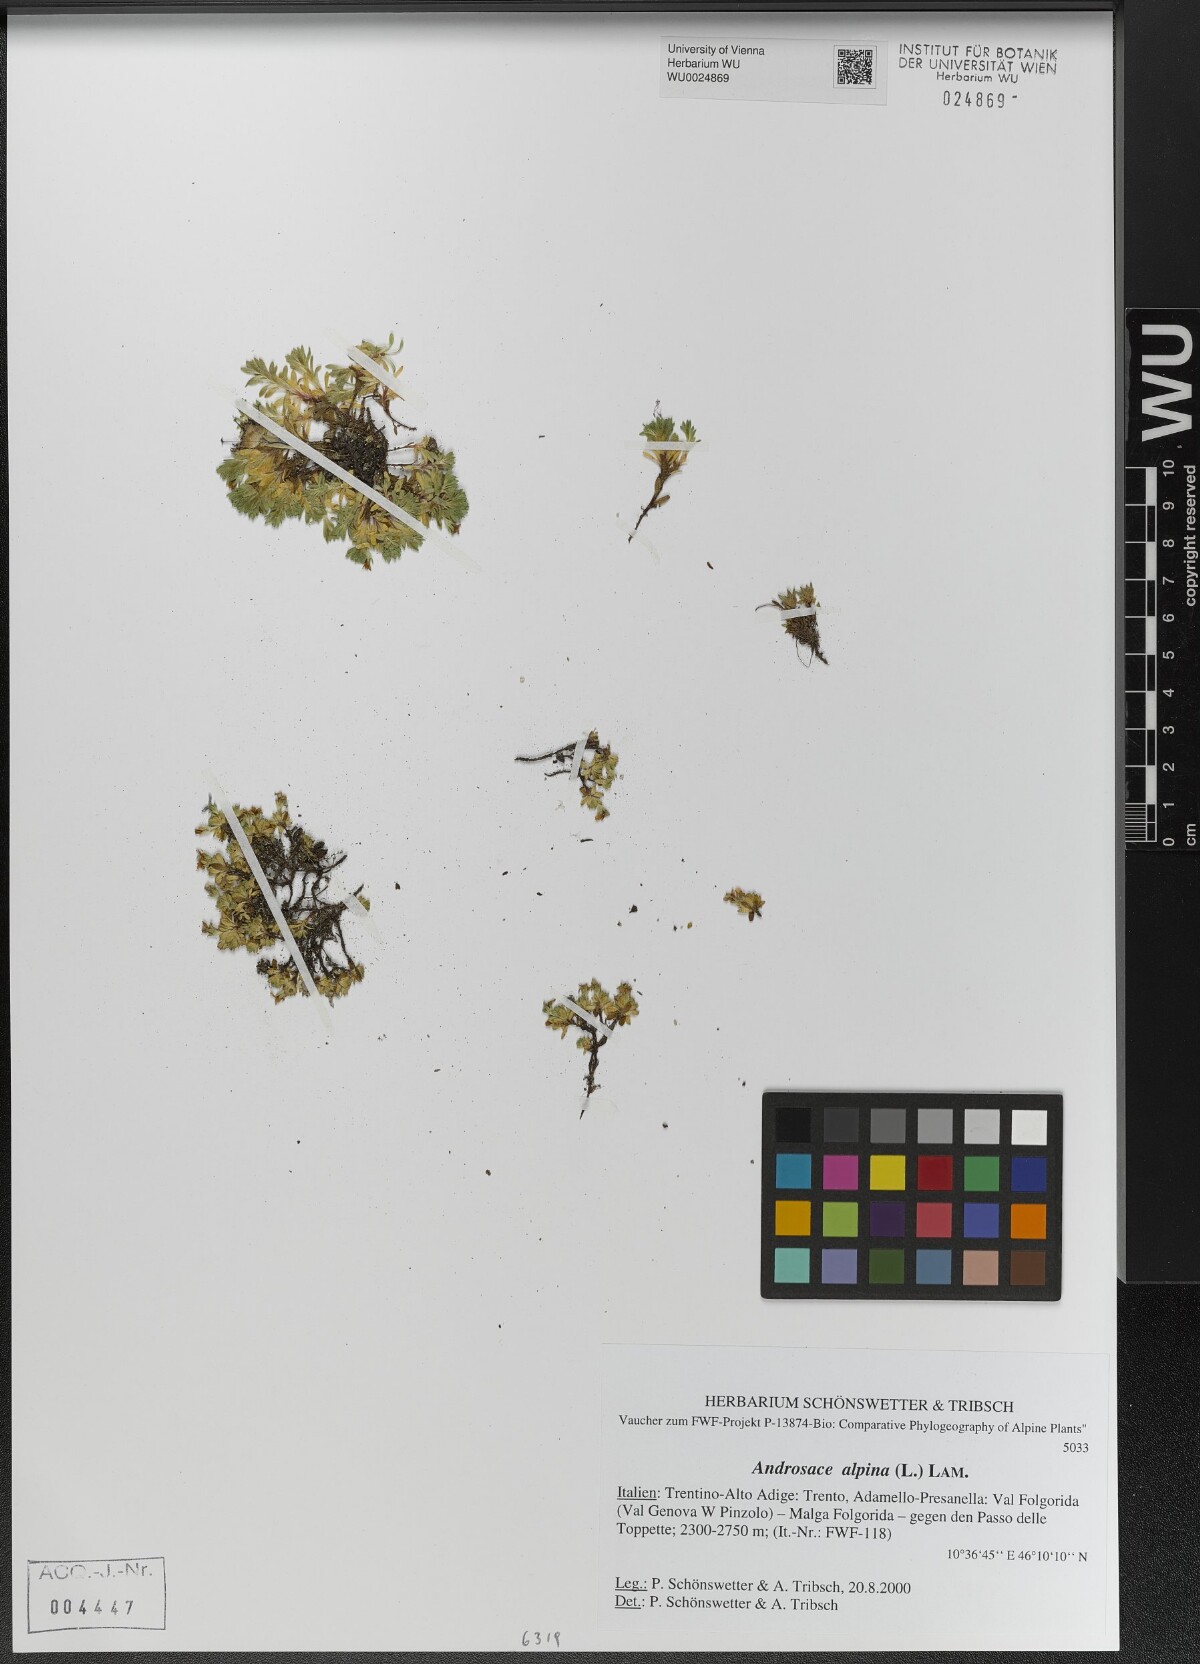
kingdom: Plantae
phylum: Tracheophyta
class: Magnoliopsida
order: Ericales
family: Primulaceae
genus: Androsace
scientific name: Androsace alpina
